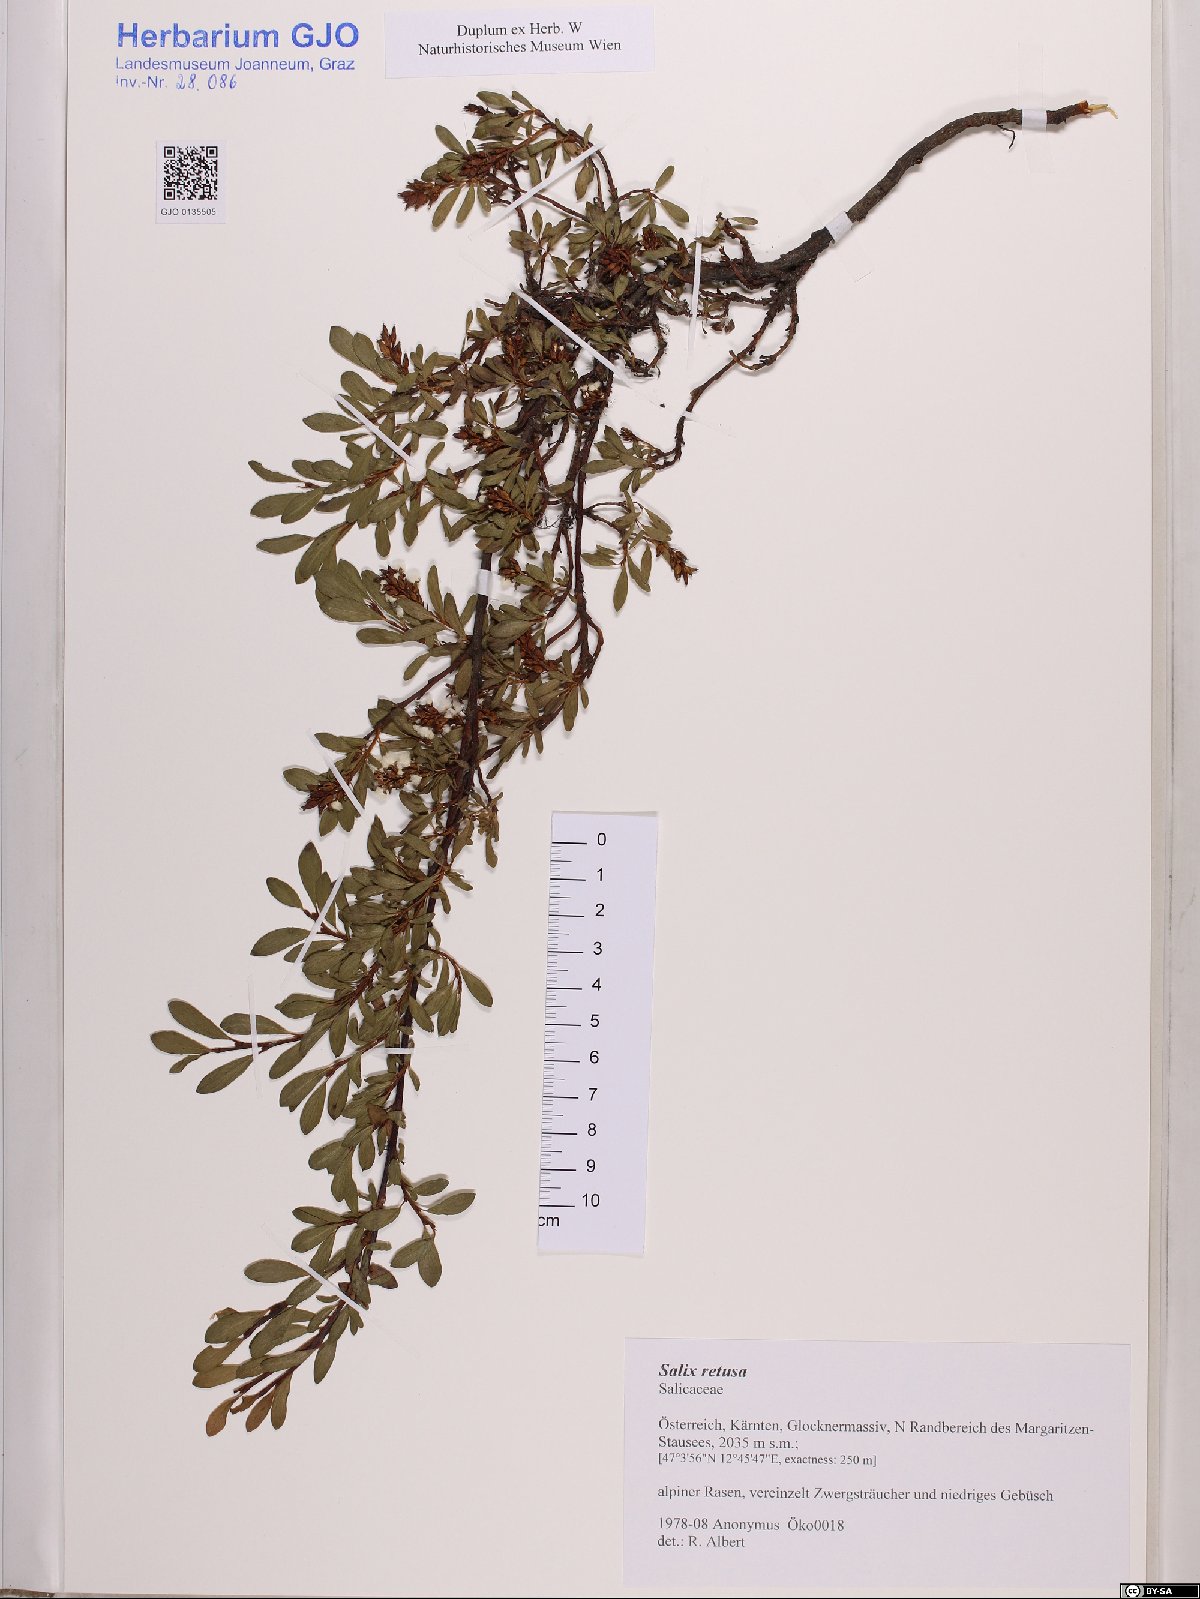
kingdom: Plantae
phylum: Tracheophyta
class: Magnoliopsida
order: Malpighiales
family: Salicaceae
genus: Salix
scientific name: Salix retusa
